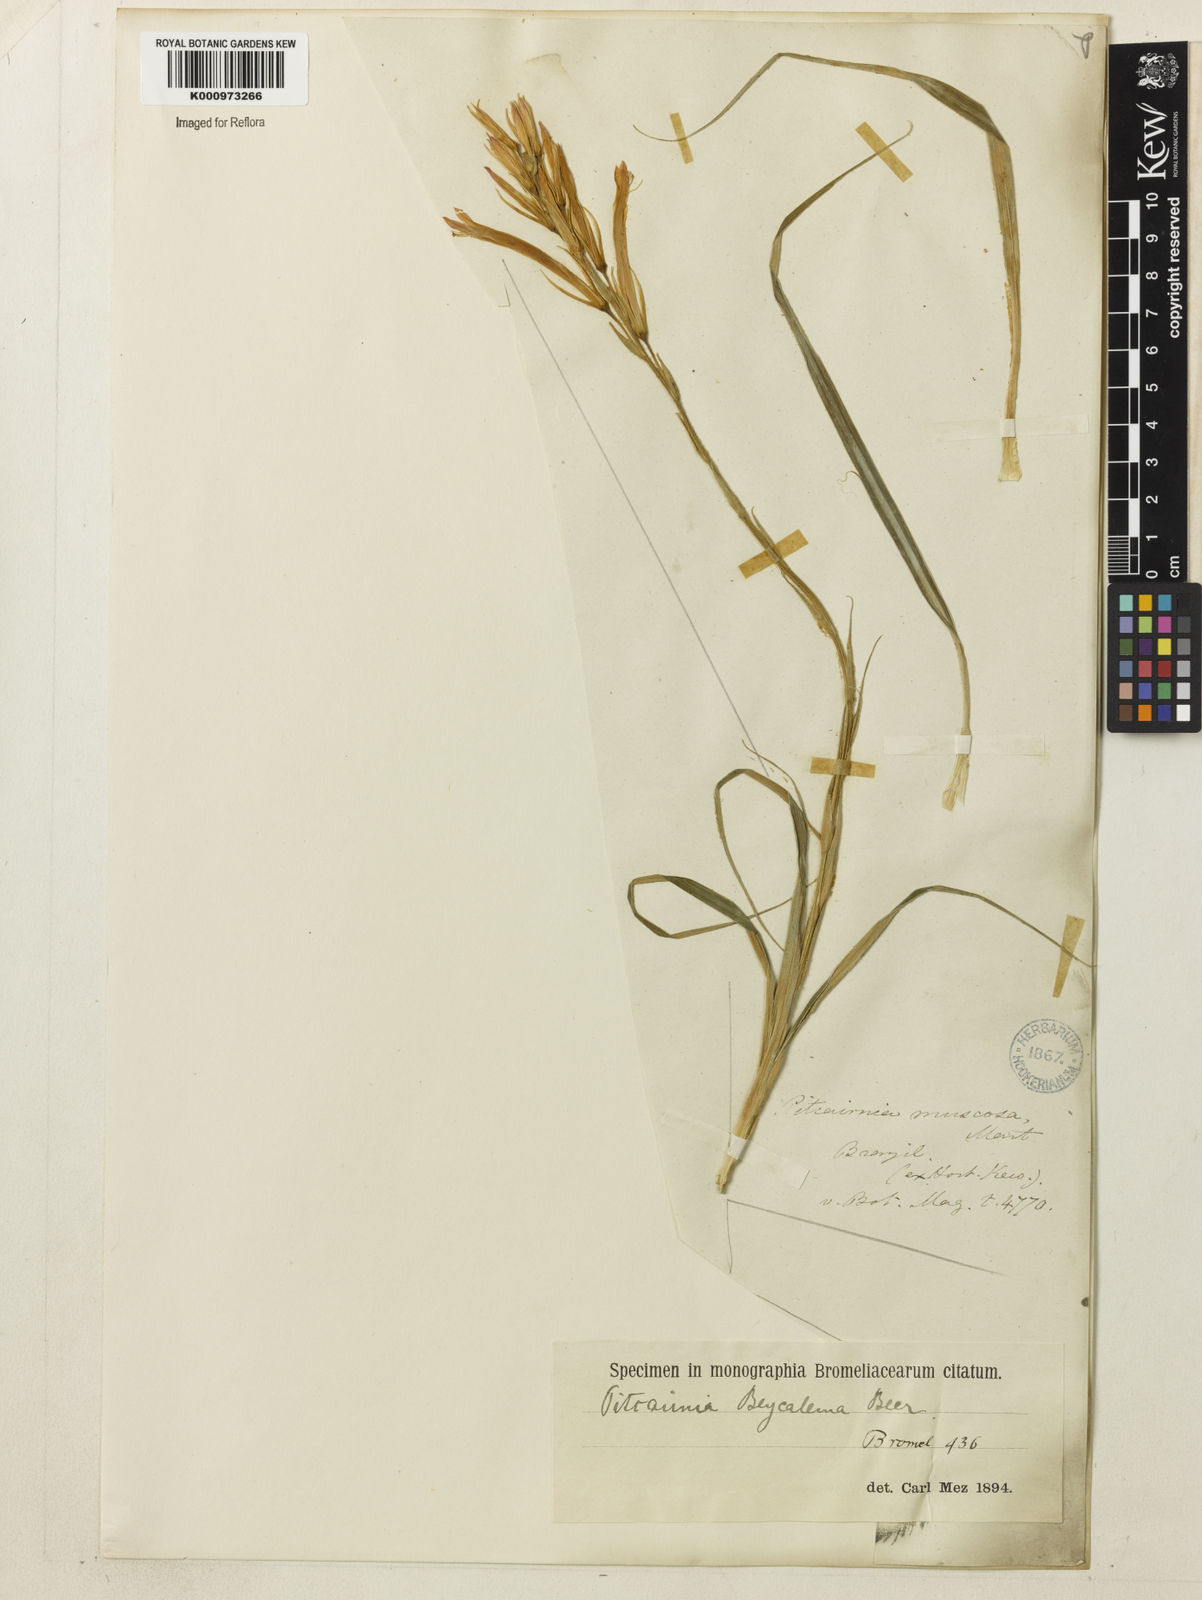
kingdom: Plantae
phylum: Tracheophyta
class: Liliopsida
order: Poales
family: Bromeliaceae
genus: Pitcairnia
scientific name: Pitcairnia beycalema
